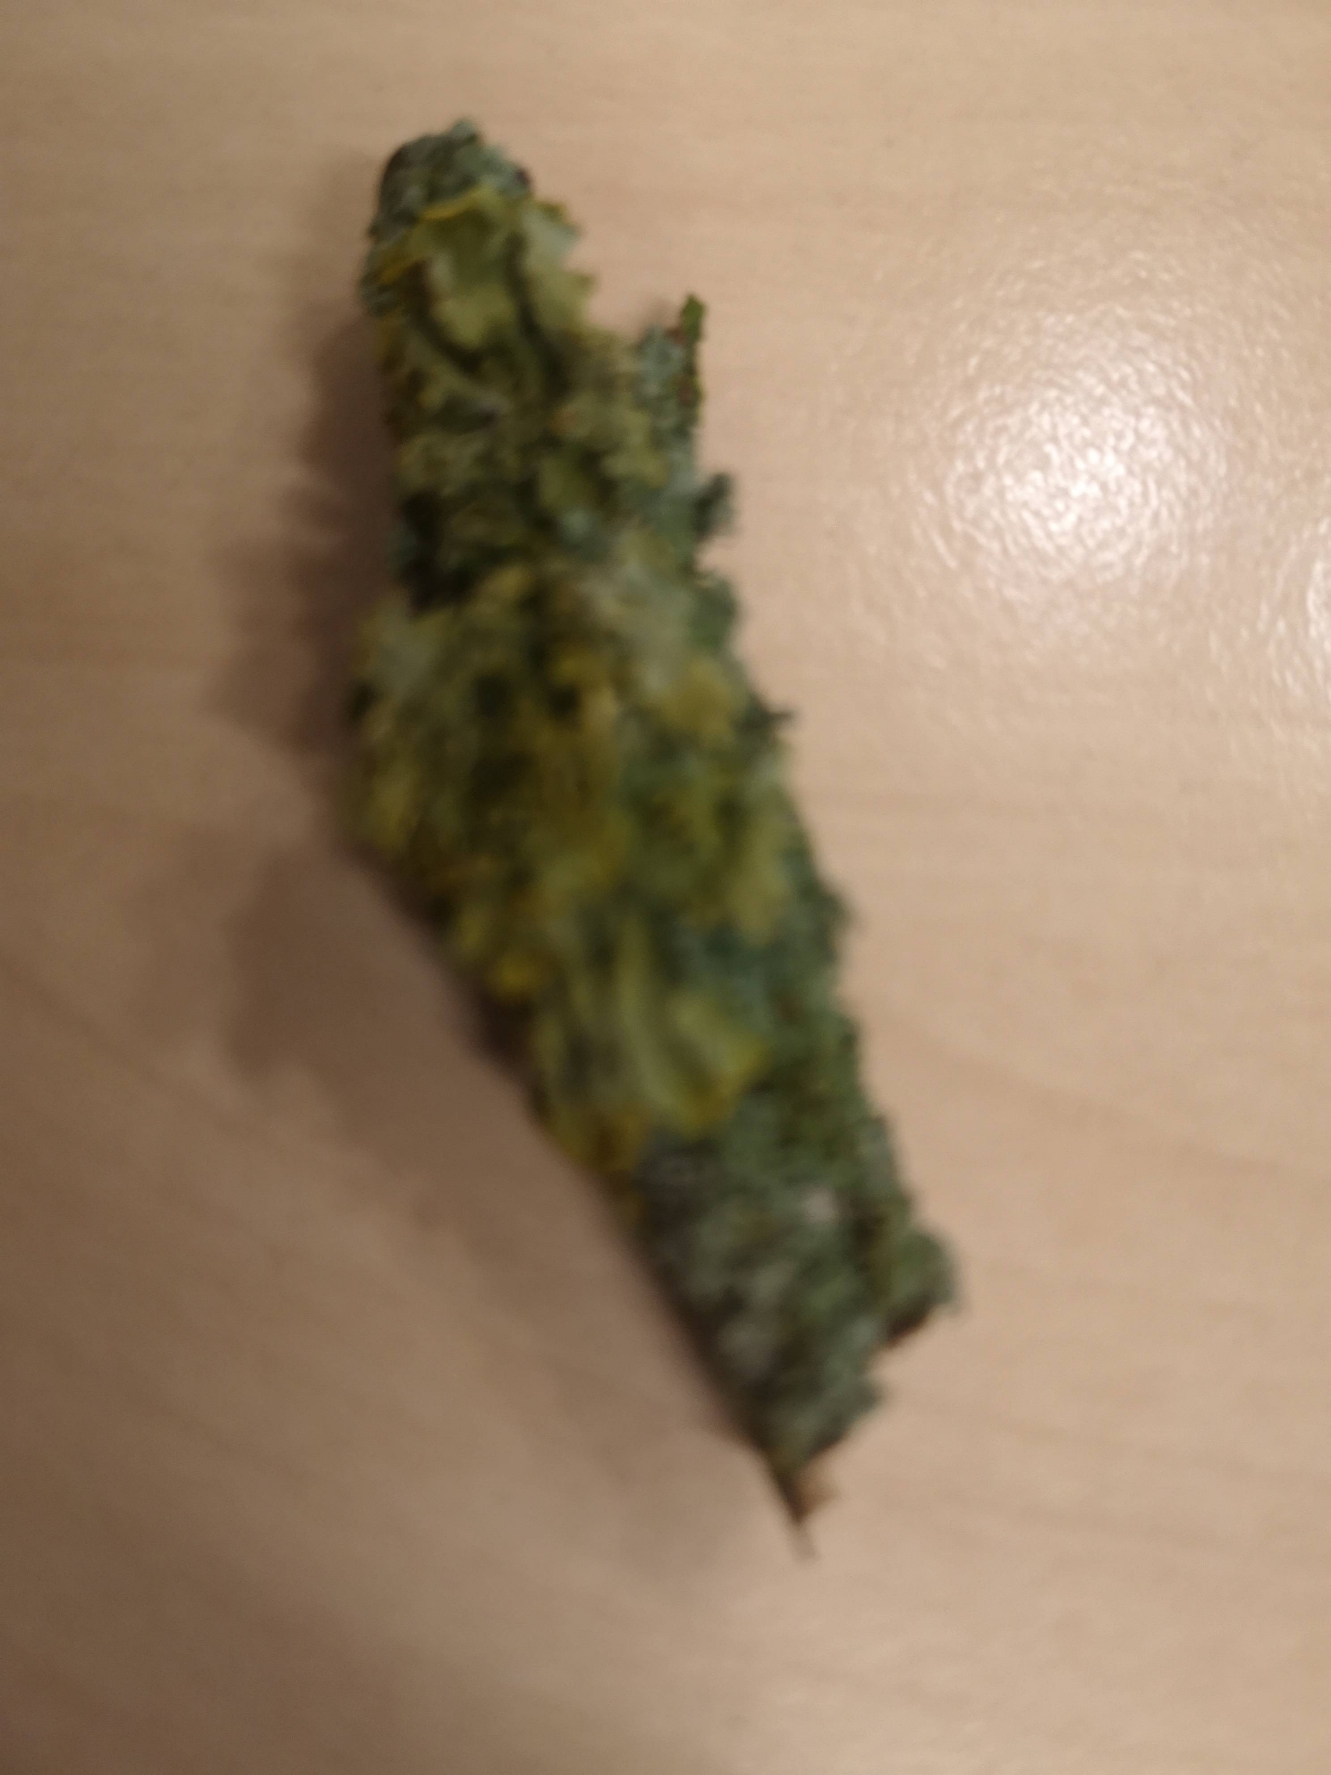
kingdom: Fungi
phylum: Ascomycota
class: Lecanoromycetes
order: Teloschistales
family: Teloschistaceae
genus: Xanthoria
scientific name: Xanthoria parietina
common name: Almindelig væggelav
